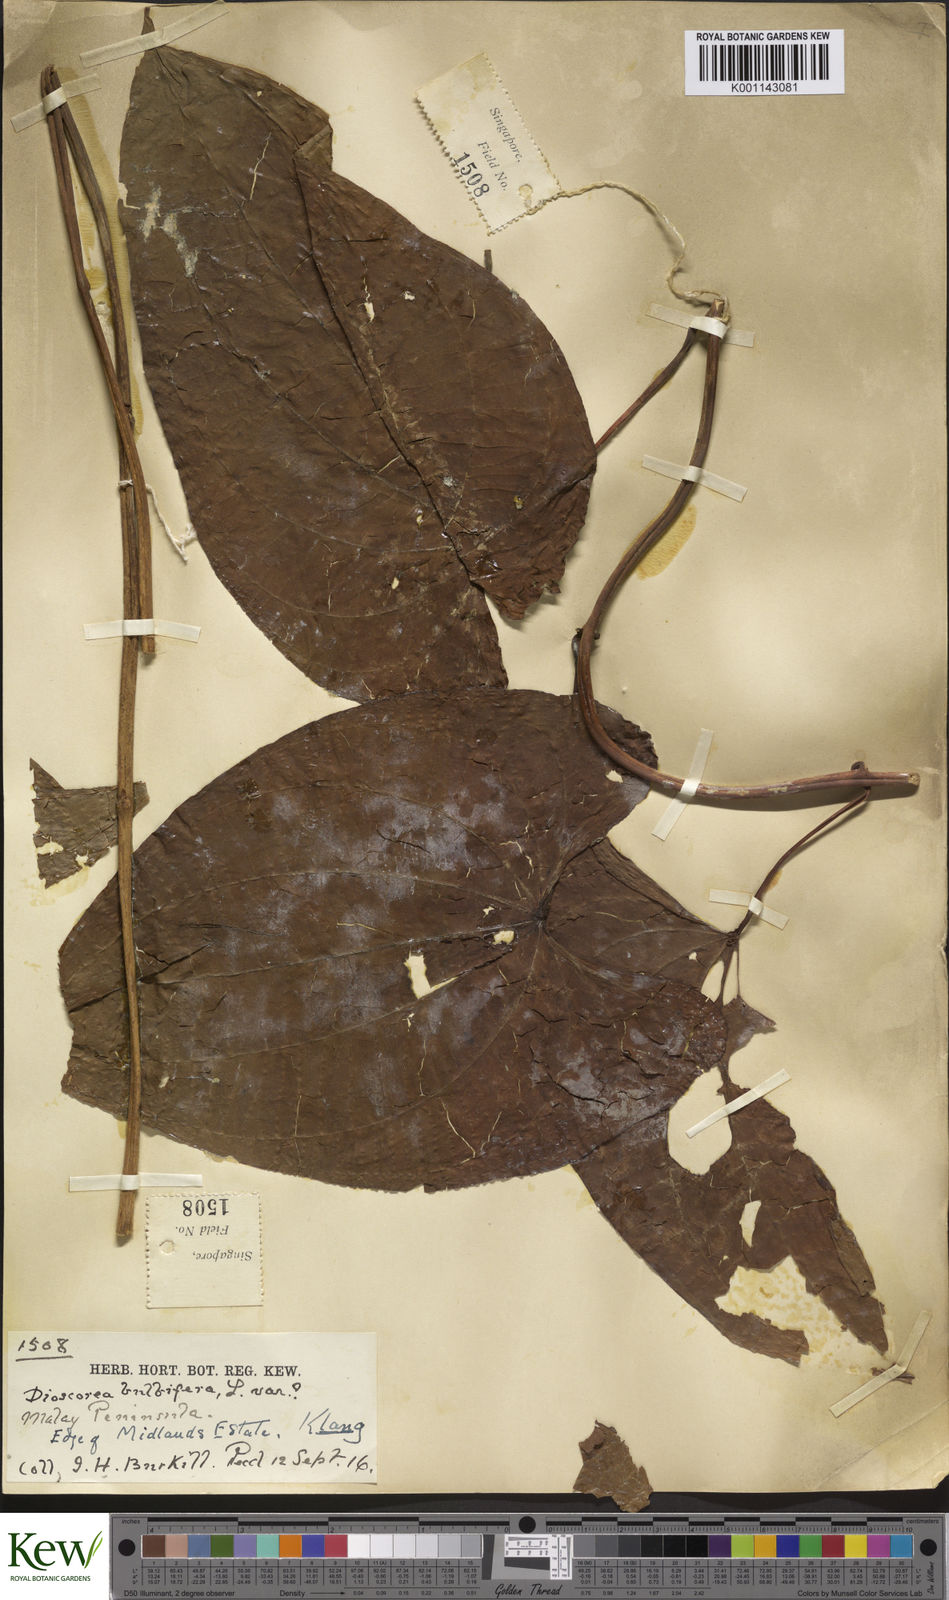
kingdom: Plantae
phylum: Tracheophyta
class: Liliopsida
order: Dioscoreales
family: Dioscoreaceae
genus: Dioscorea
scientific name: Dioscorea bulbifera
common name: Air yam
